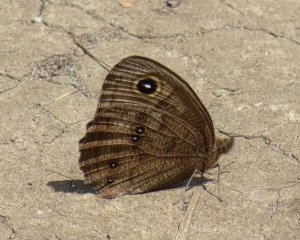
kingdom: Animalia
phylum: Arthropoda
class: Insecta
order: Lepidoptera
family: Nymphalidae
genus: Cercyonis
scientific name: Cercyonis pegala
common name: Common Wood-Nymph
